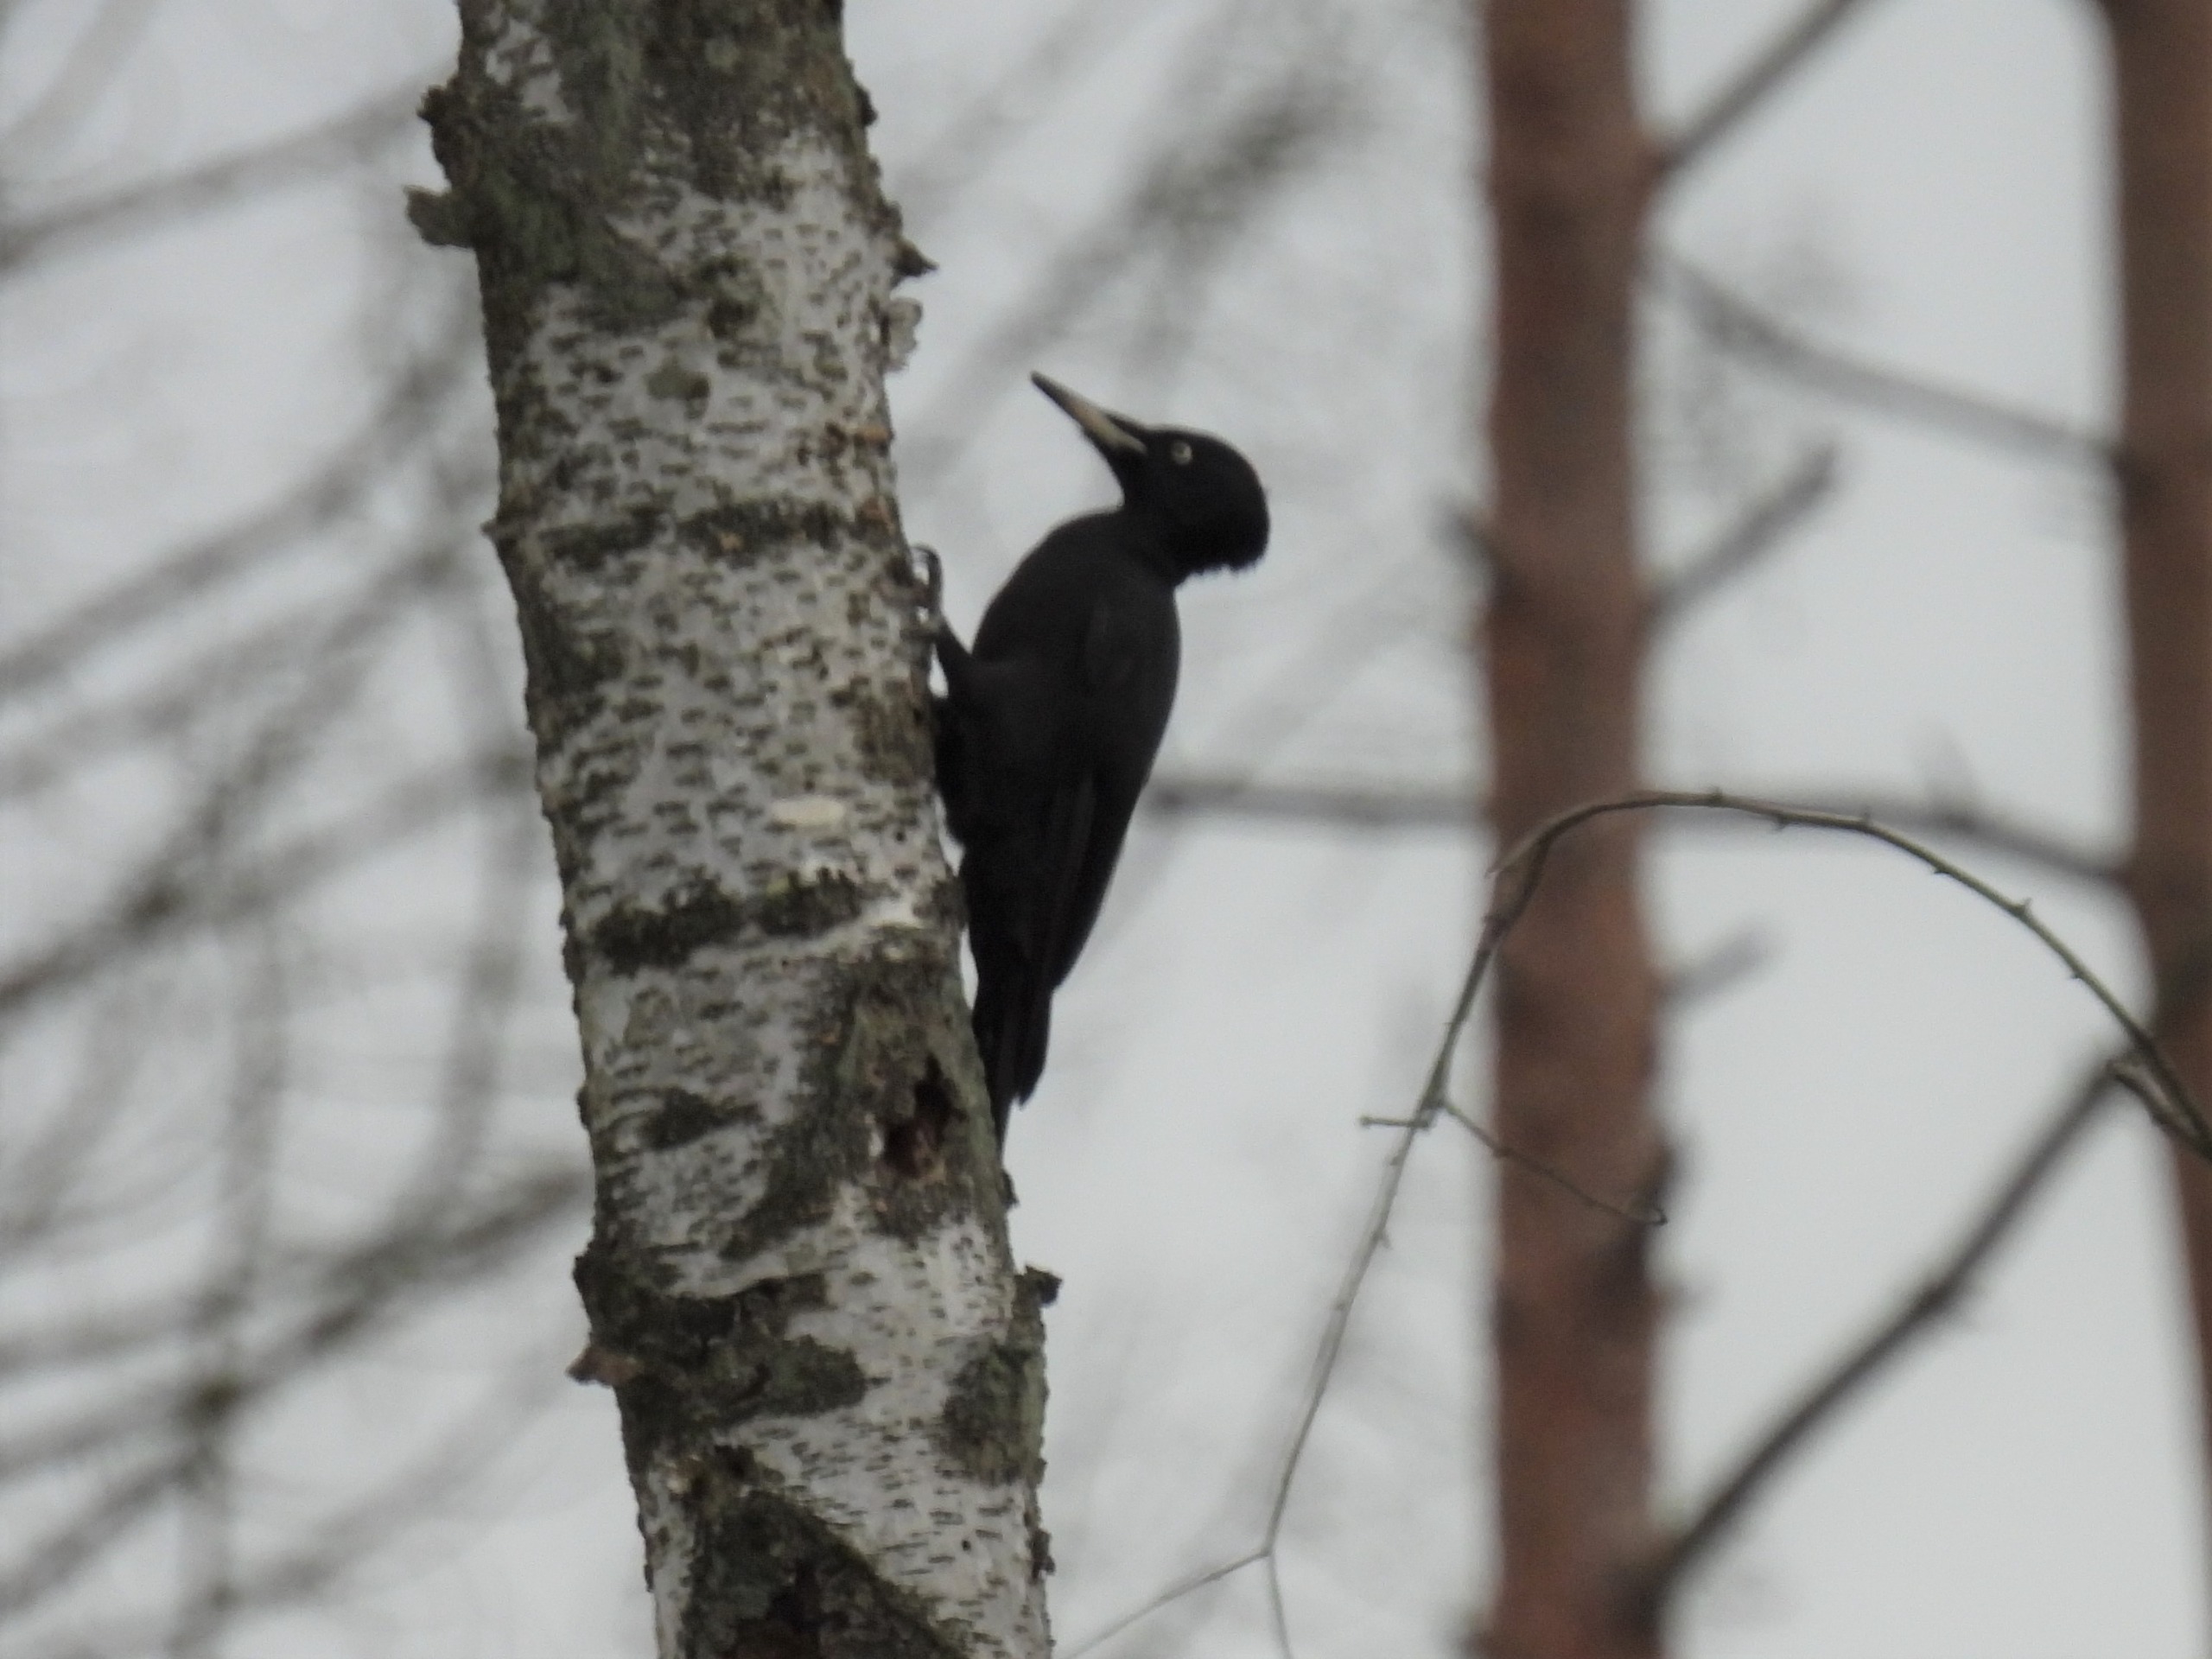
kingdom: Animalia
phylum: Chordata
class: Aves
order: Piciformes
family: Picidae
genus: Dryocopus
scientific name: Dryocopus martius
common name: Sortspætte
